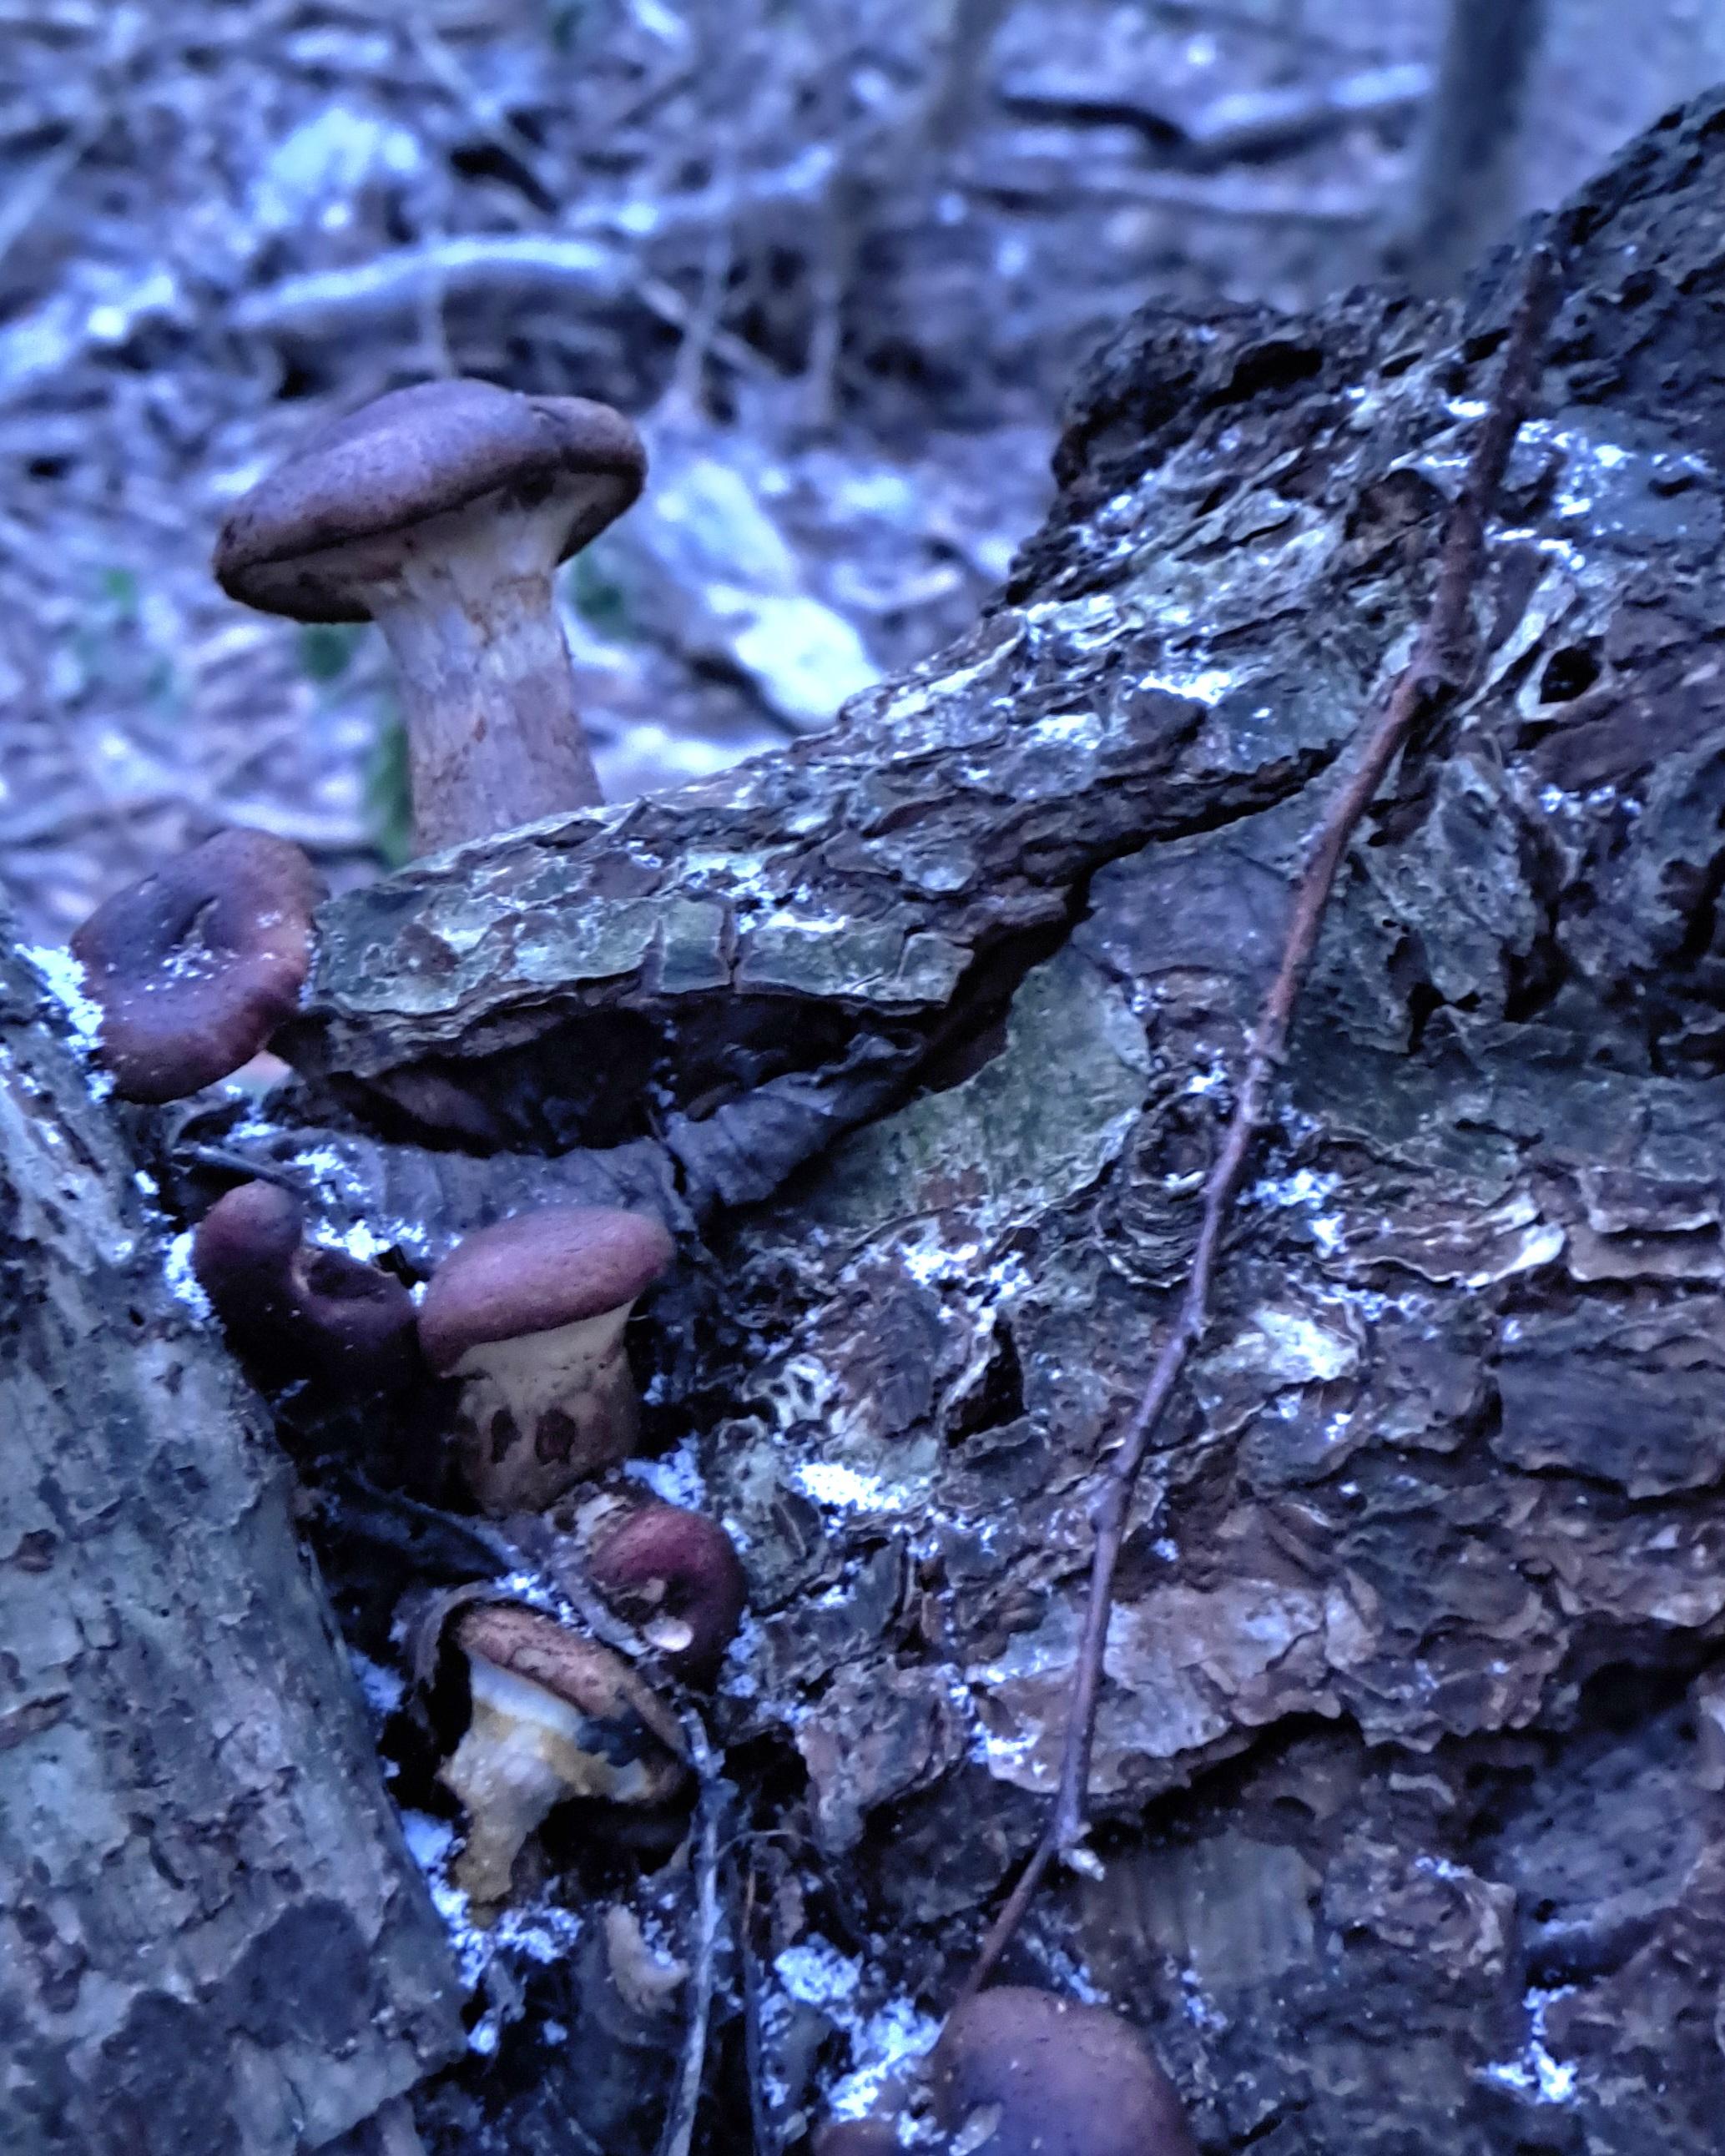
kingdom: Fungi
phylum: Basidiomycota
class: Agaricomycetes
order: Agaricales
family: Physalacriaceae
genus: Armillaria
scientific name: Armillaria lutea
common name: køllestokket honningsvamp
